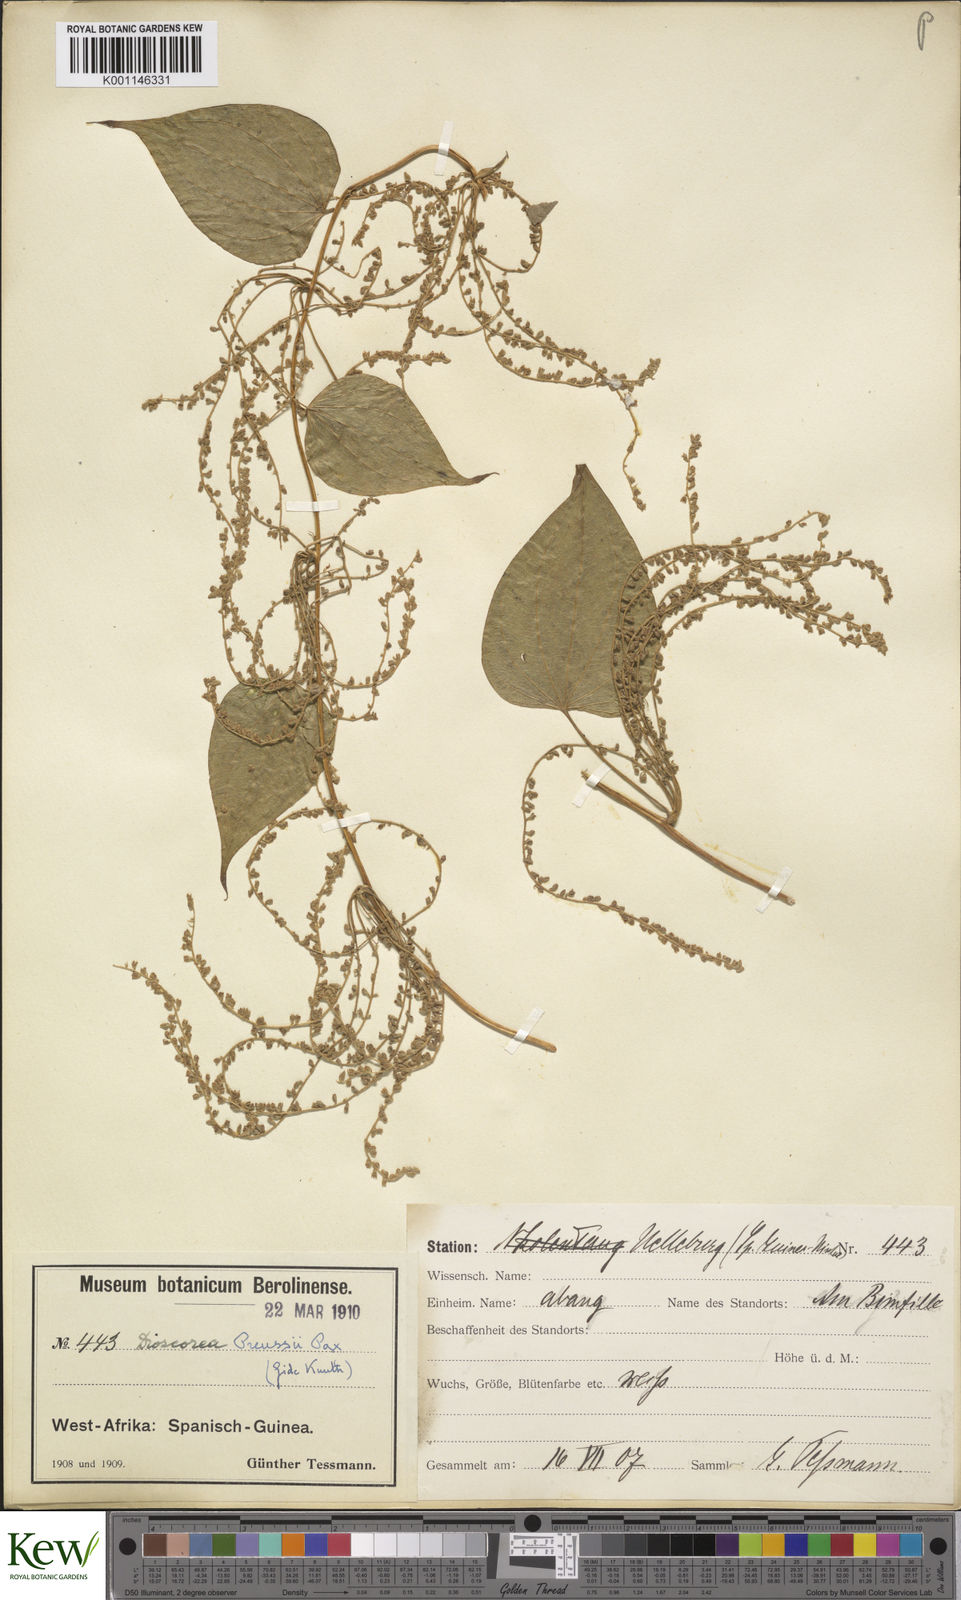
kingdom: Plantae
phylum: Tracheophyta
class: Liliopsida
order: Dioscoreales
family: Dioscoreaceae
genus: Dioscorea
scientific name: Dioscorea preussii
